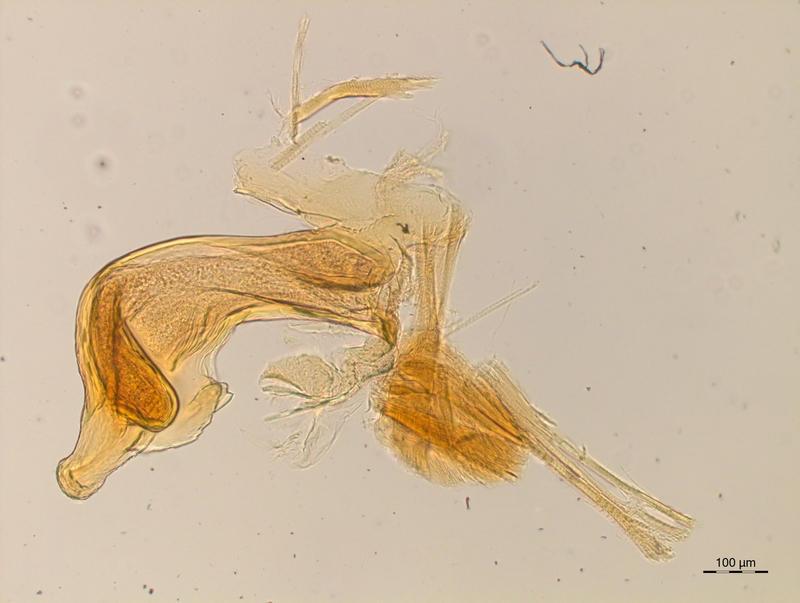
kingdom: Animalia
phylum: Arthropoda
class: Diplopoda
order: Chordeumatida
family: Craspedosomatidae
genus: Craspedosoma
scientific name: Craspedosoma rawlinsii
